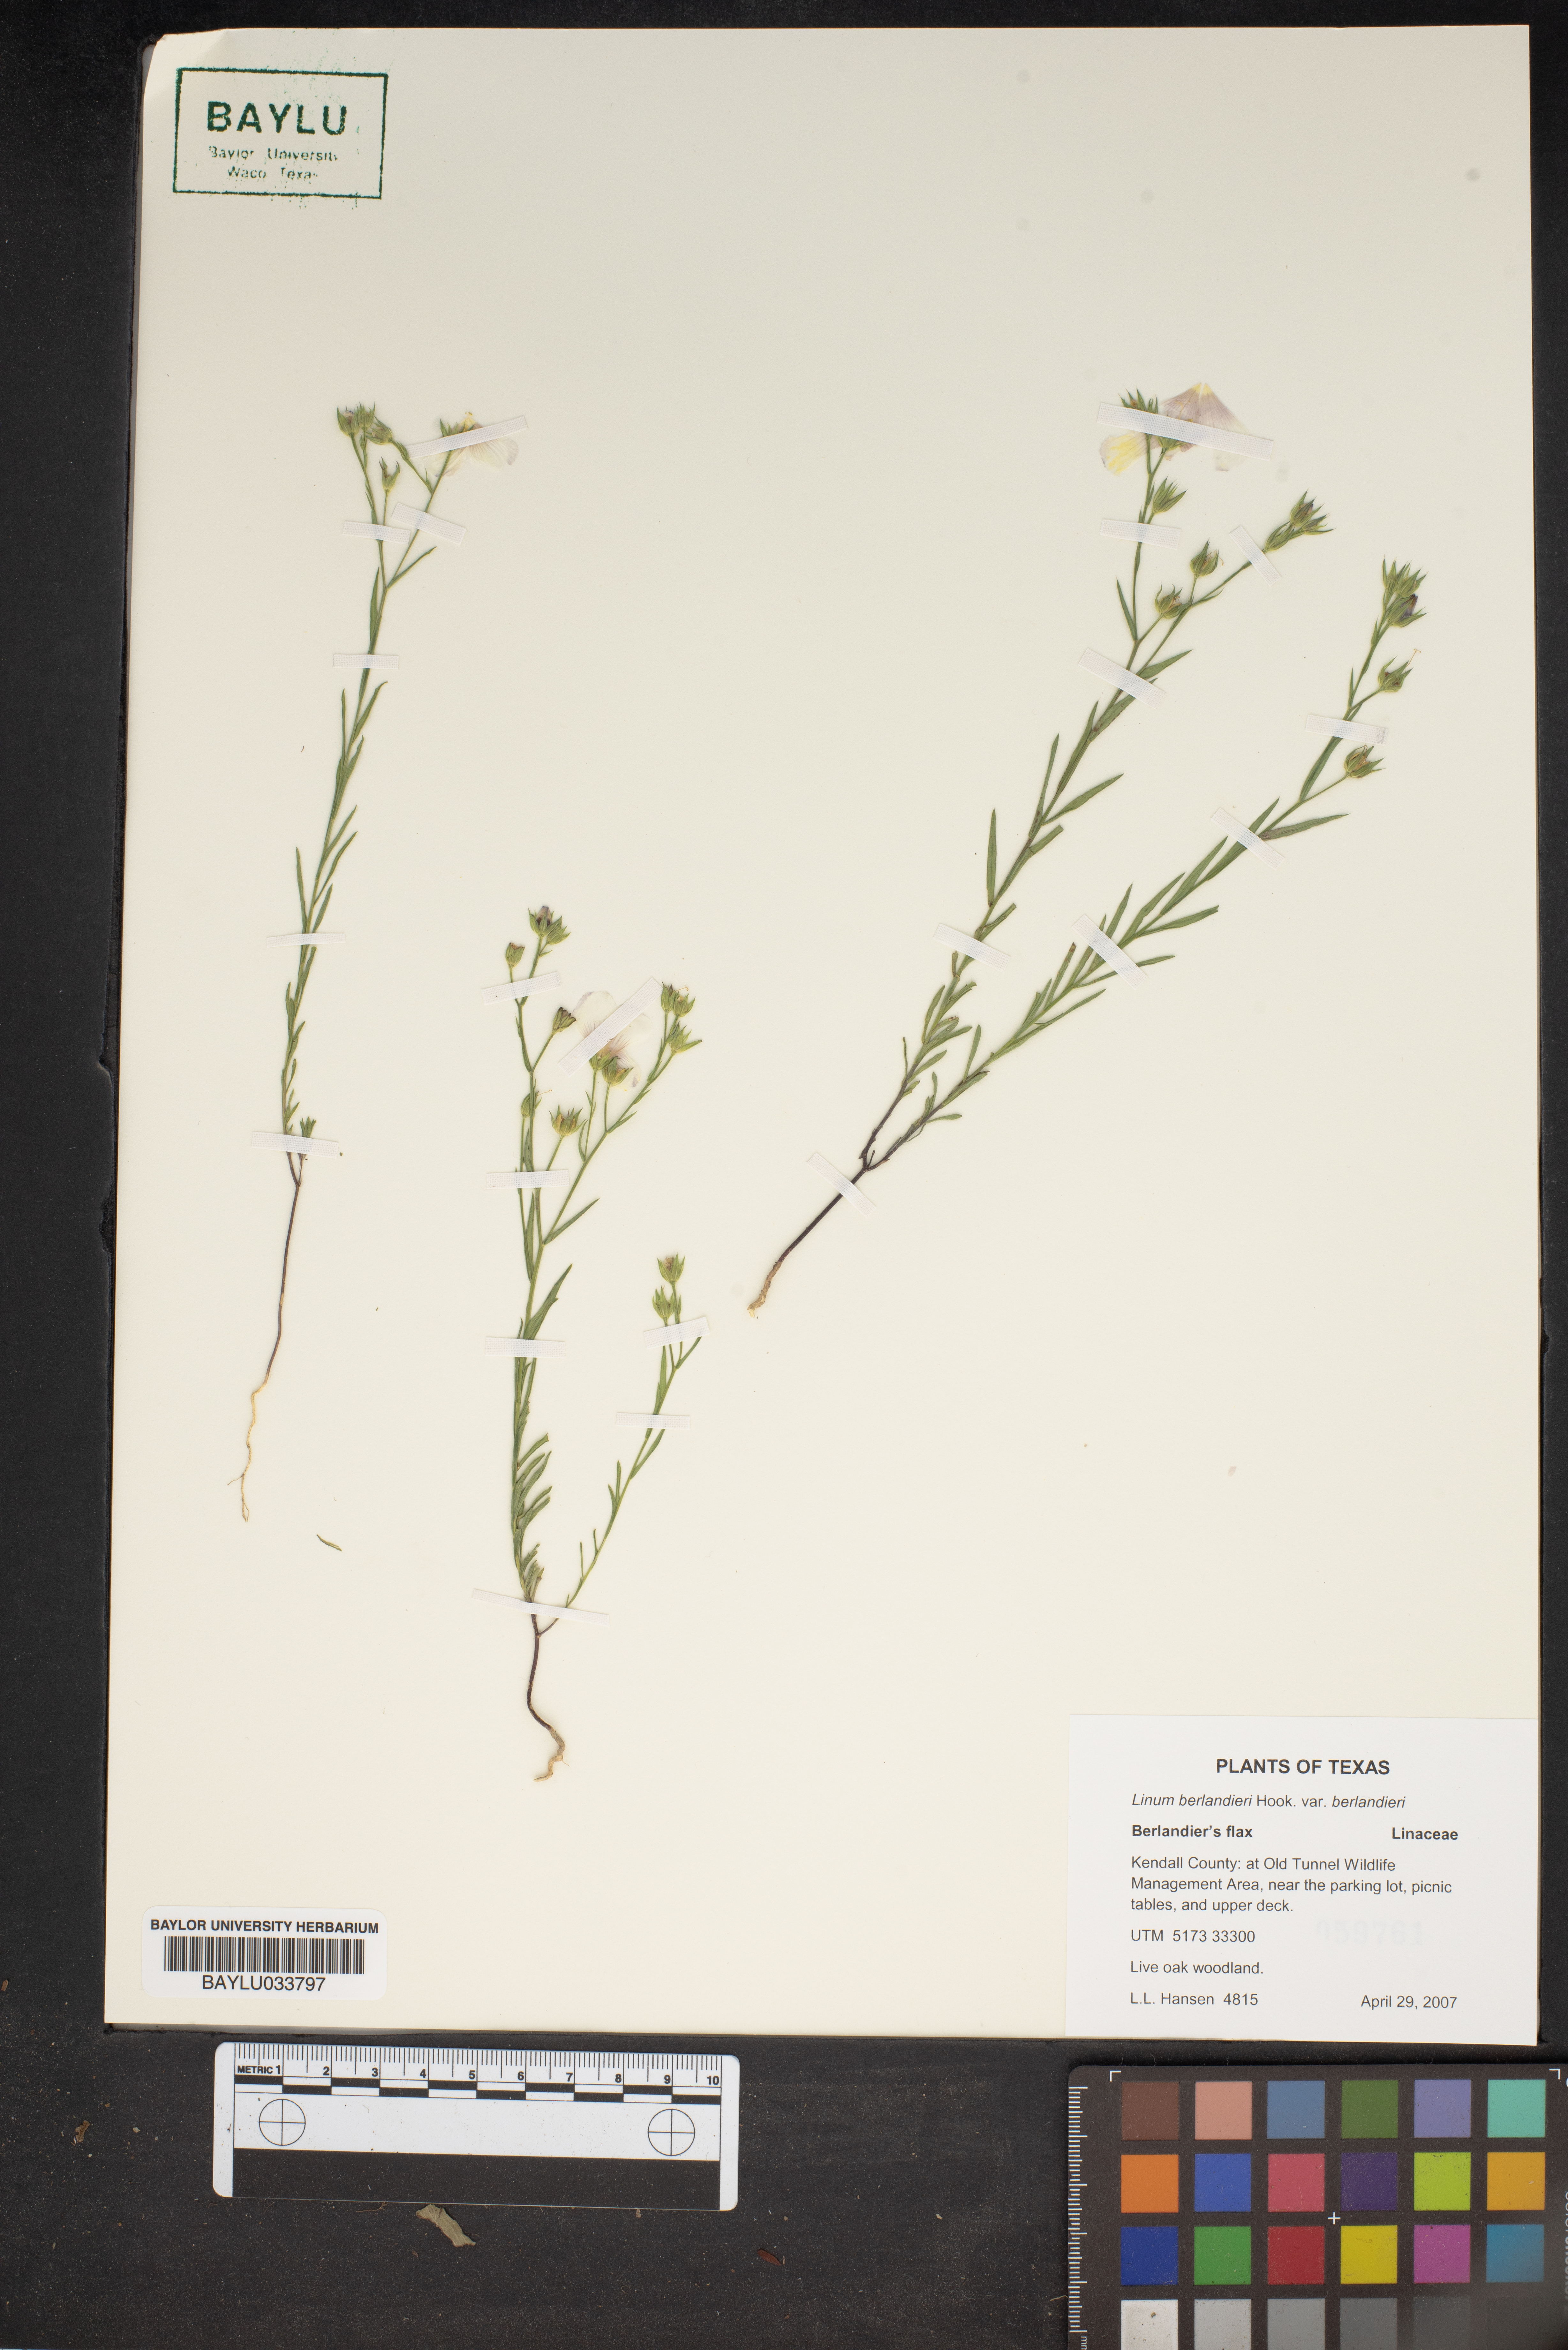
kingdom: Plantae
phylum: Tracheophyta
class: Magnoliopsida
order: Malpighiales
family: Linaceae
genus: Linum
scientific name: Linum berlandieri
